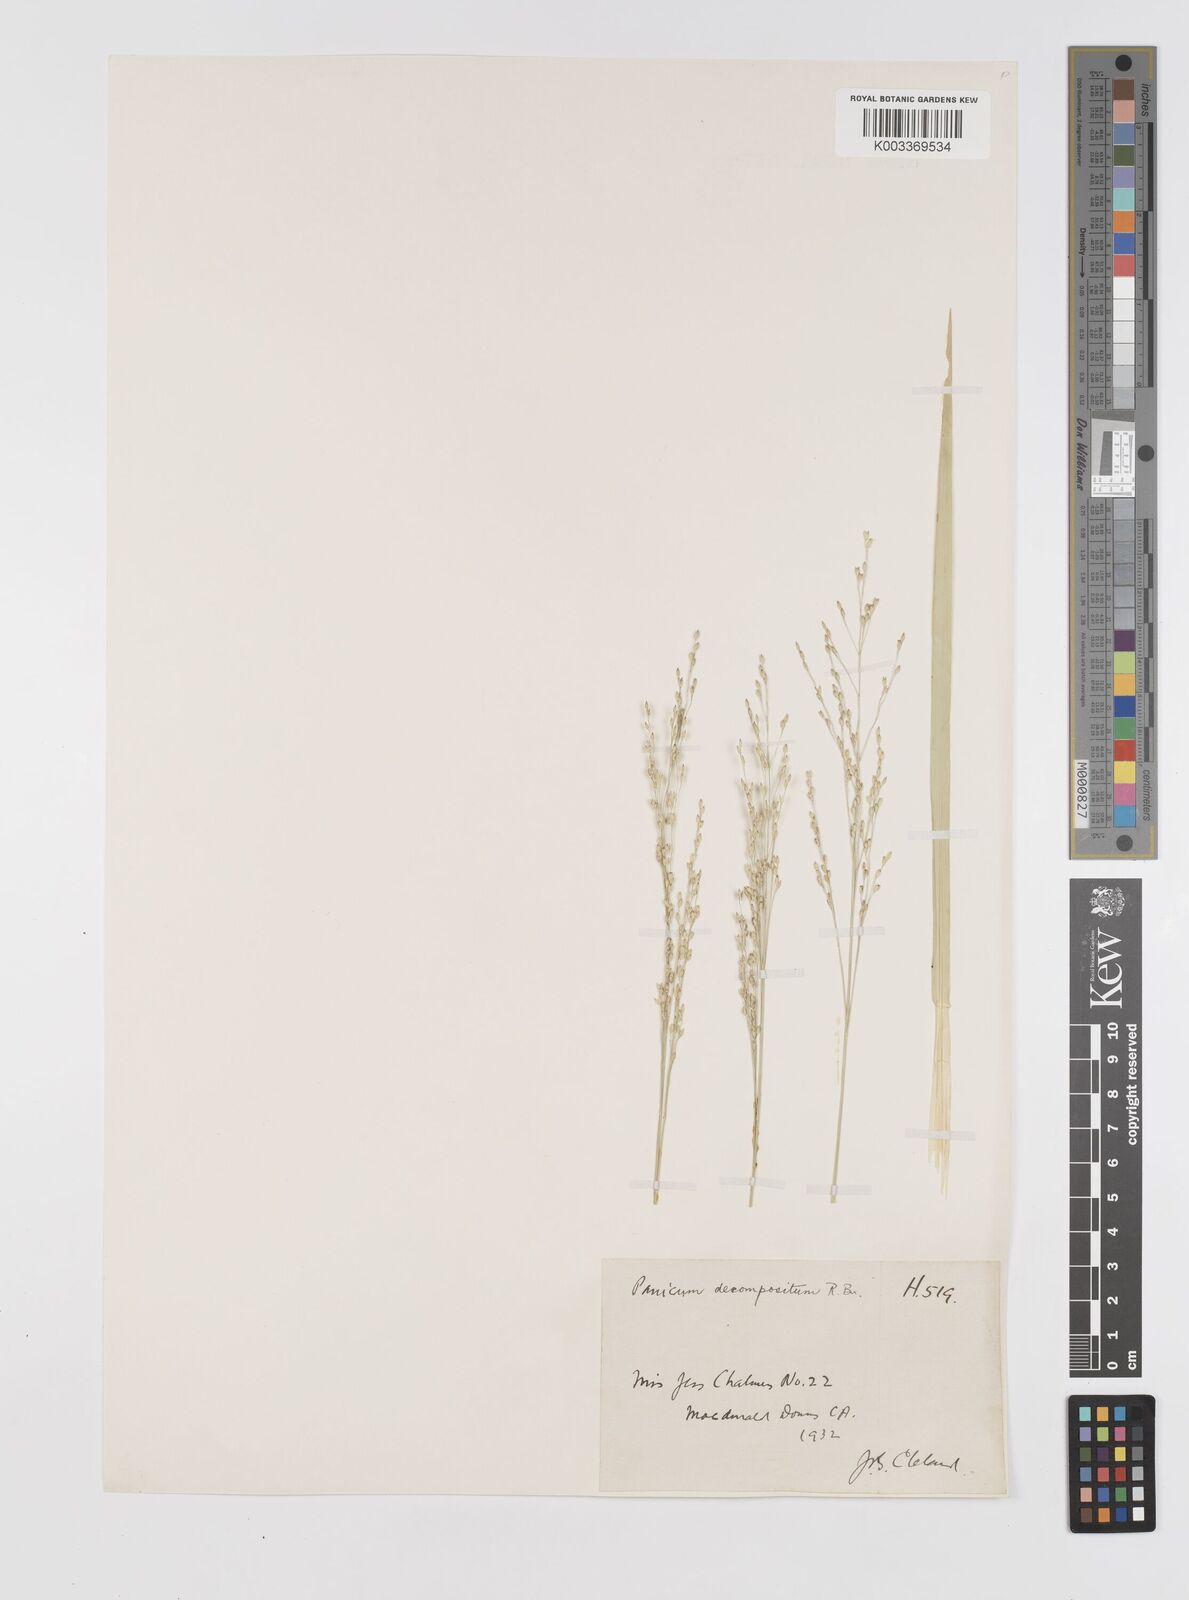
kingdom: Plantae
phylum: Tracheophyta
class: Liliopsida
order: Poales
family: Poaceae
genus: Panicum
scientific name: Panicum decompositum
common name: Australian millet
